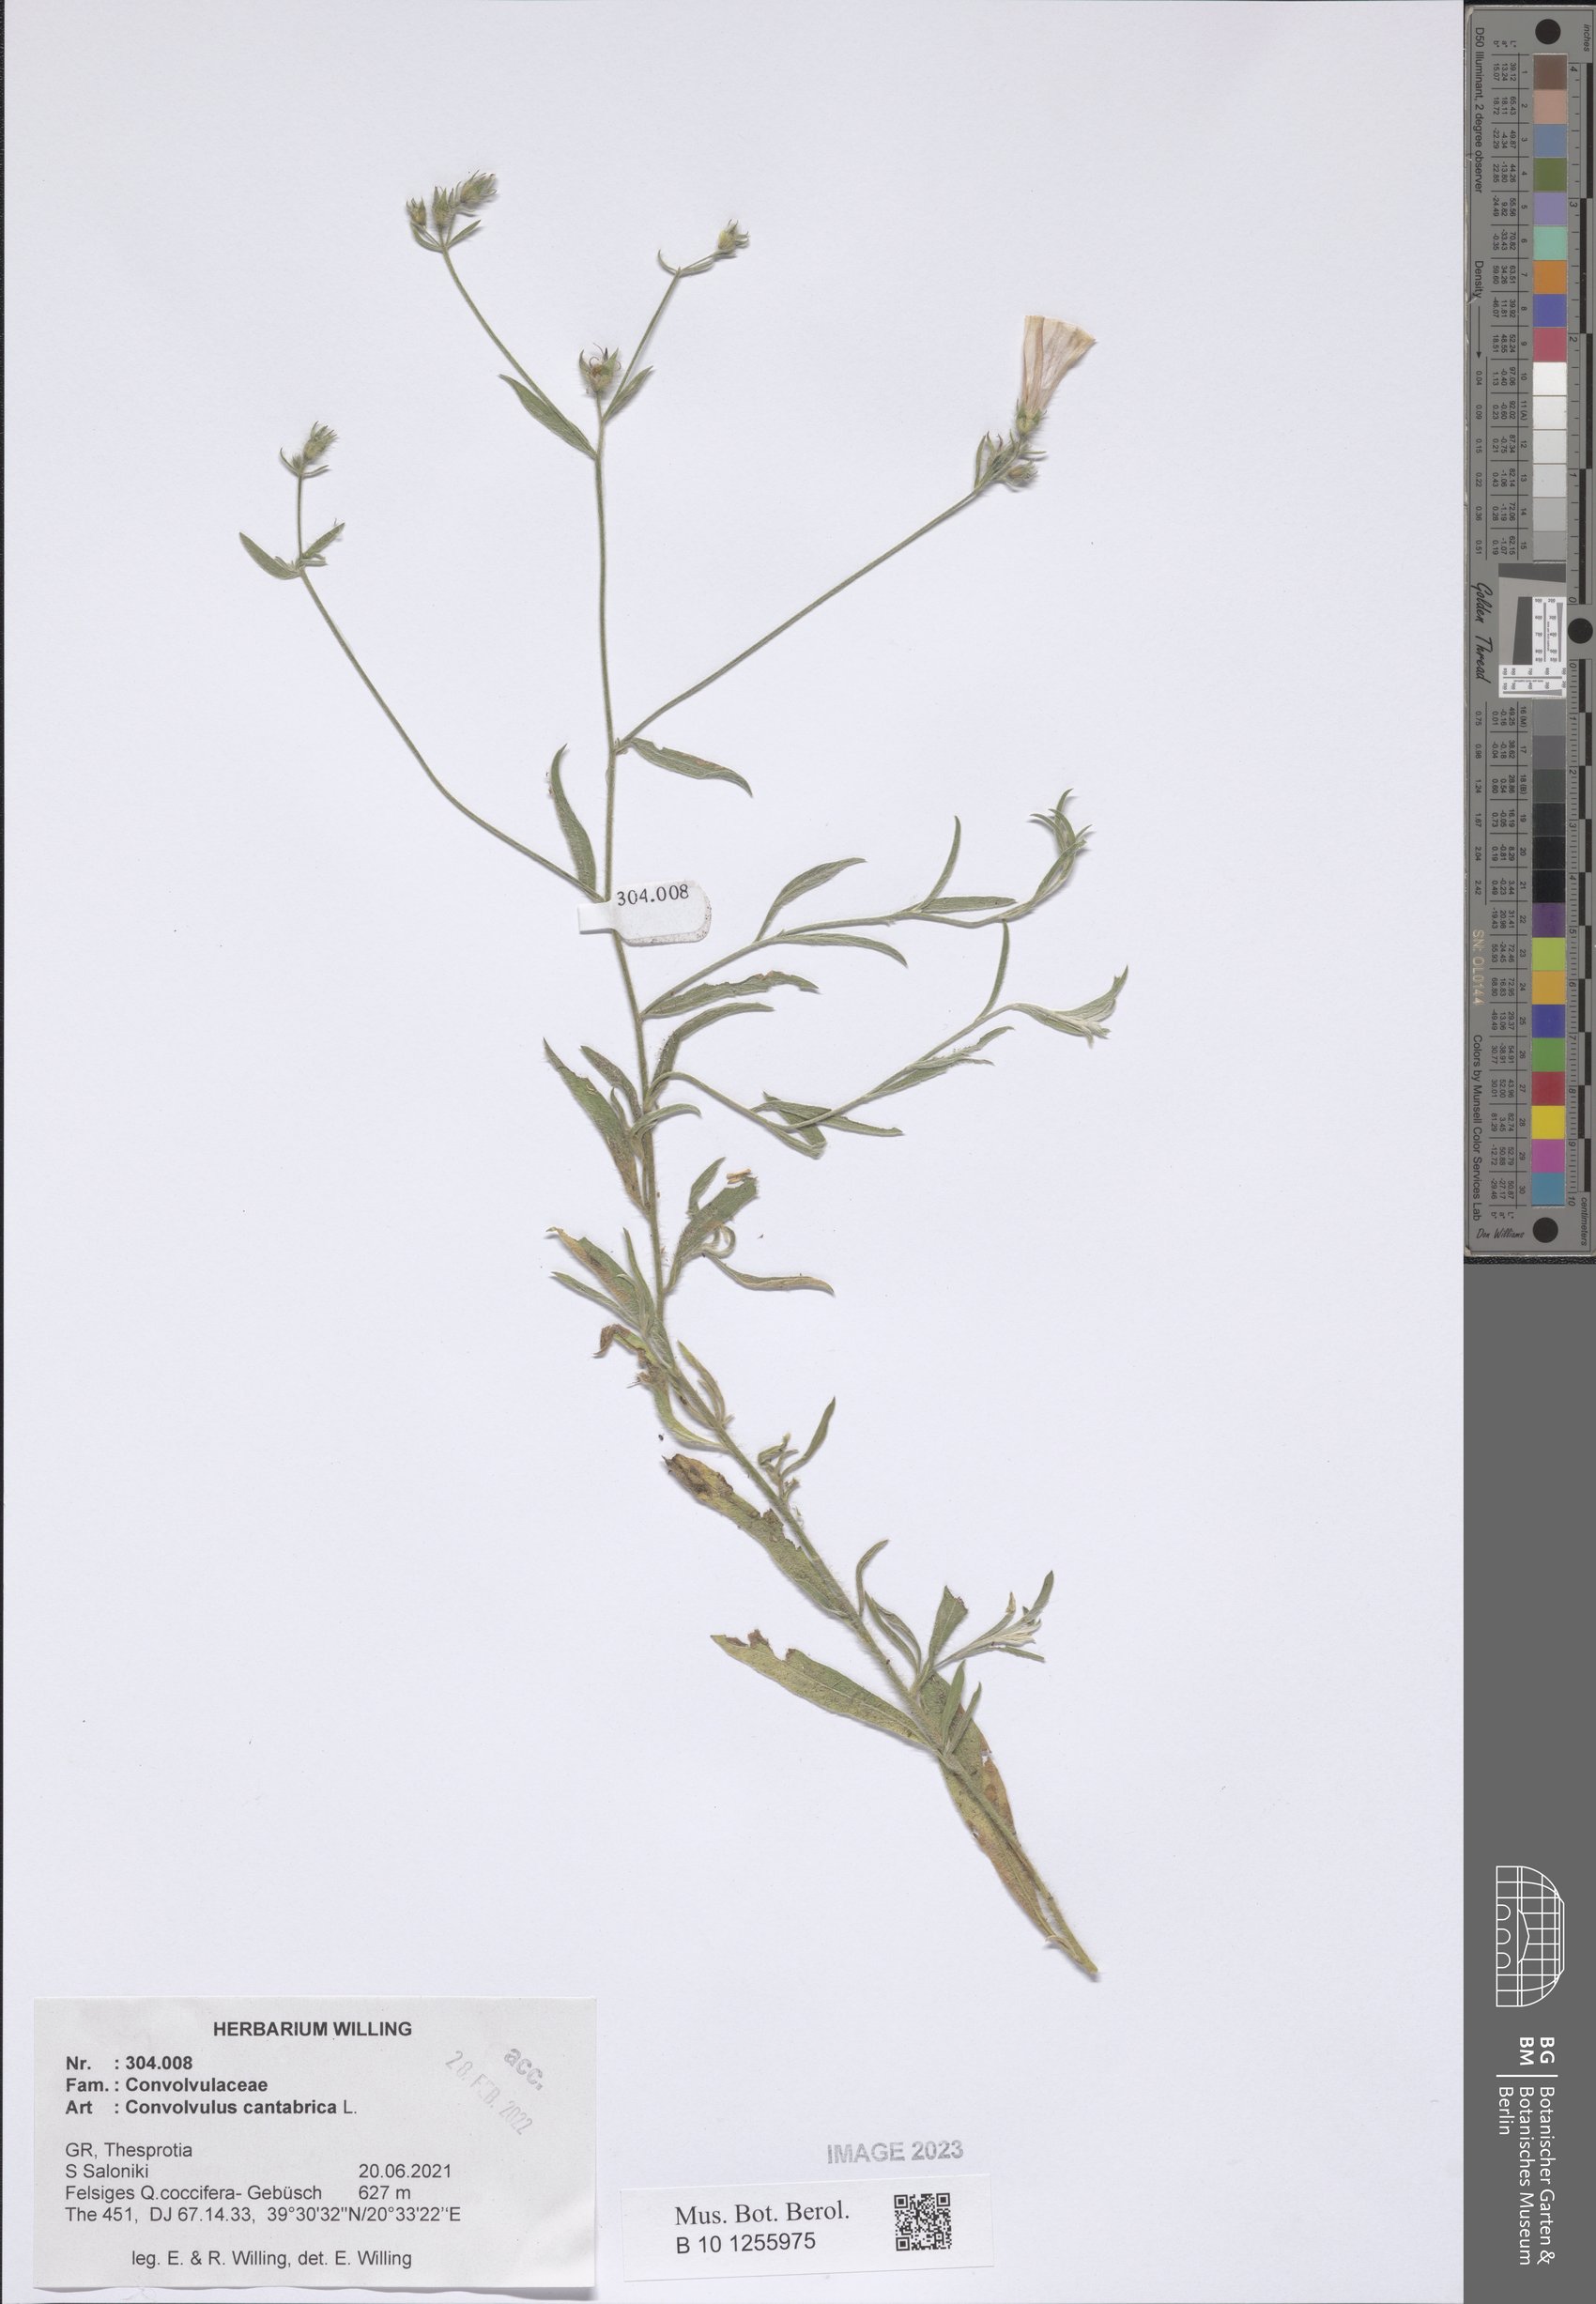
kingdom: Plantae
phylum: Tracheophyta
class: Magnoliopsida
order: Solanales
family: Convolvulaceae
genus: Convolvulus
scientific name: Convolvulus cantabrica
